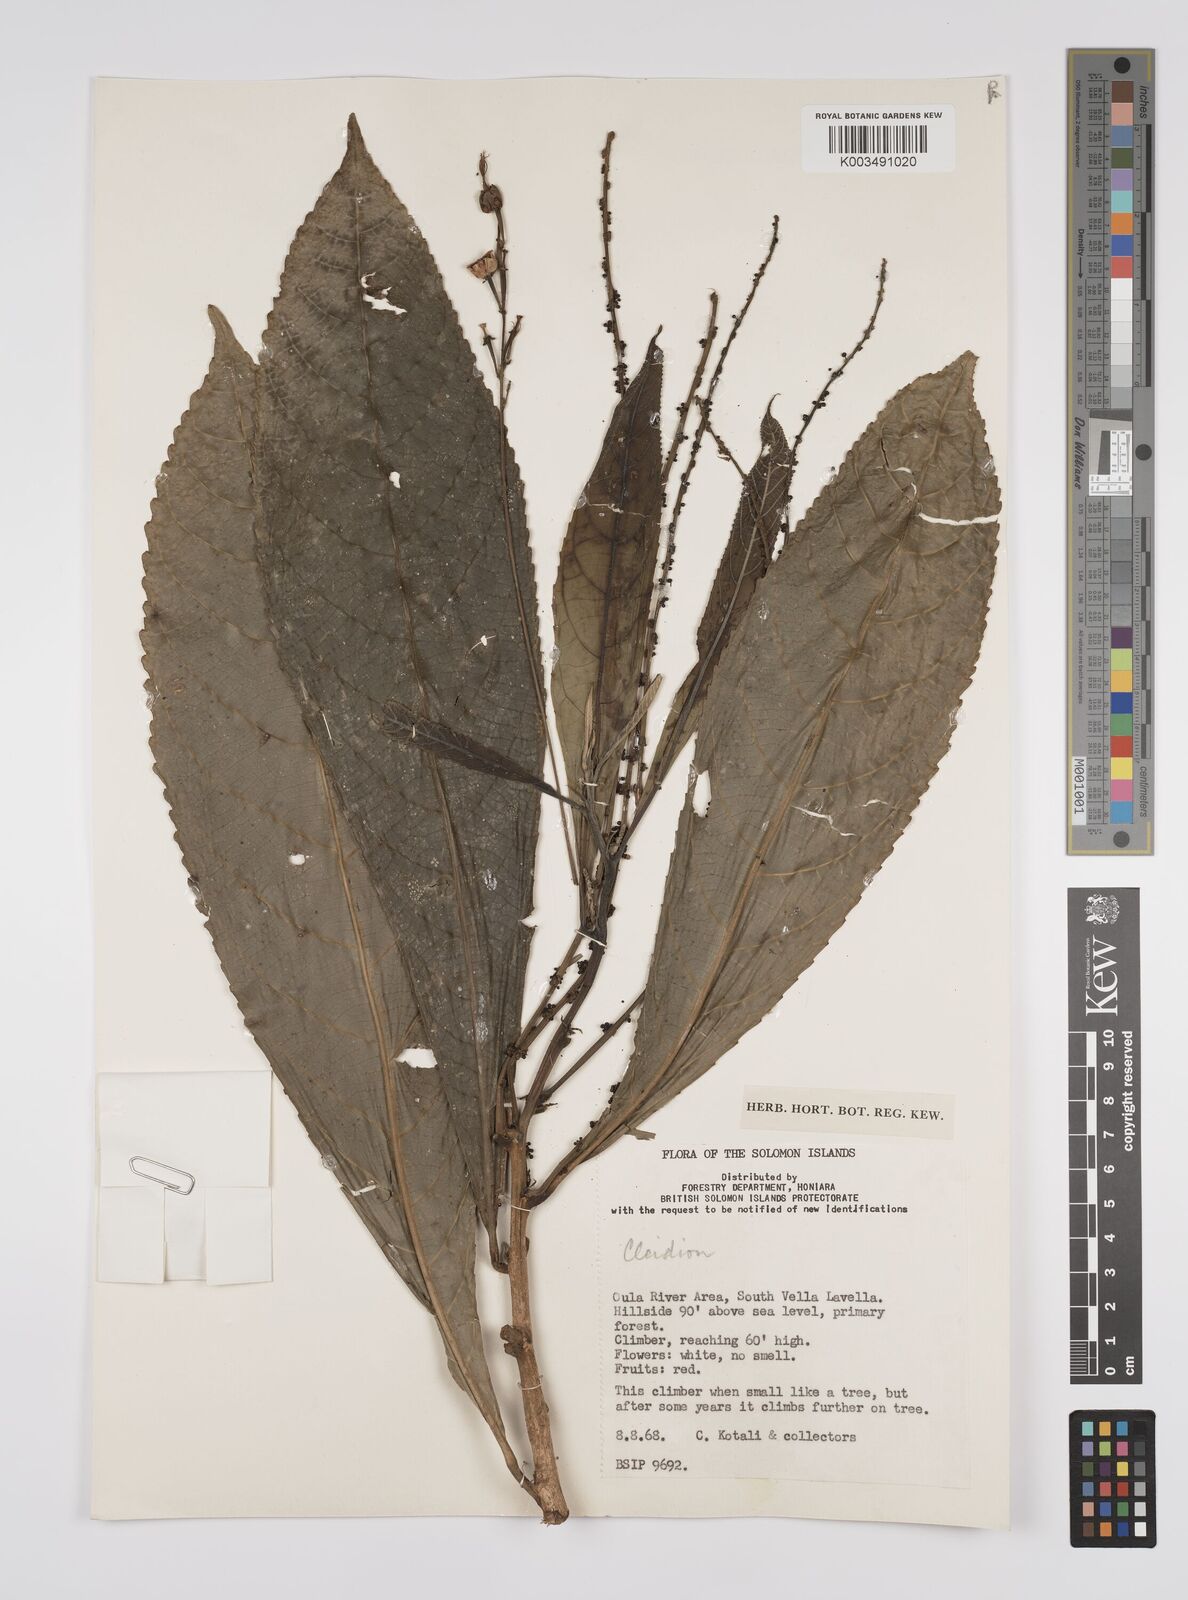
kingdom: Plantae
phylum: Tracheophyta
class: Magnoliopsida
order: Malpighiales
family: Euphorbiaceae
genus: Cleidion
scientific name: Cleidion papuanum
